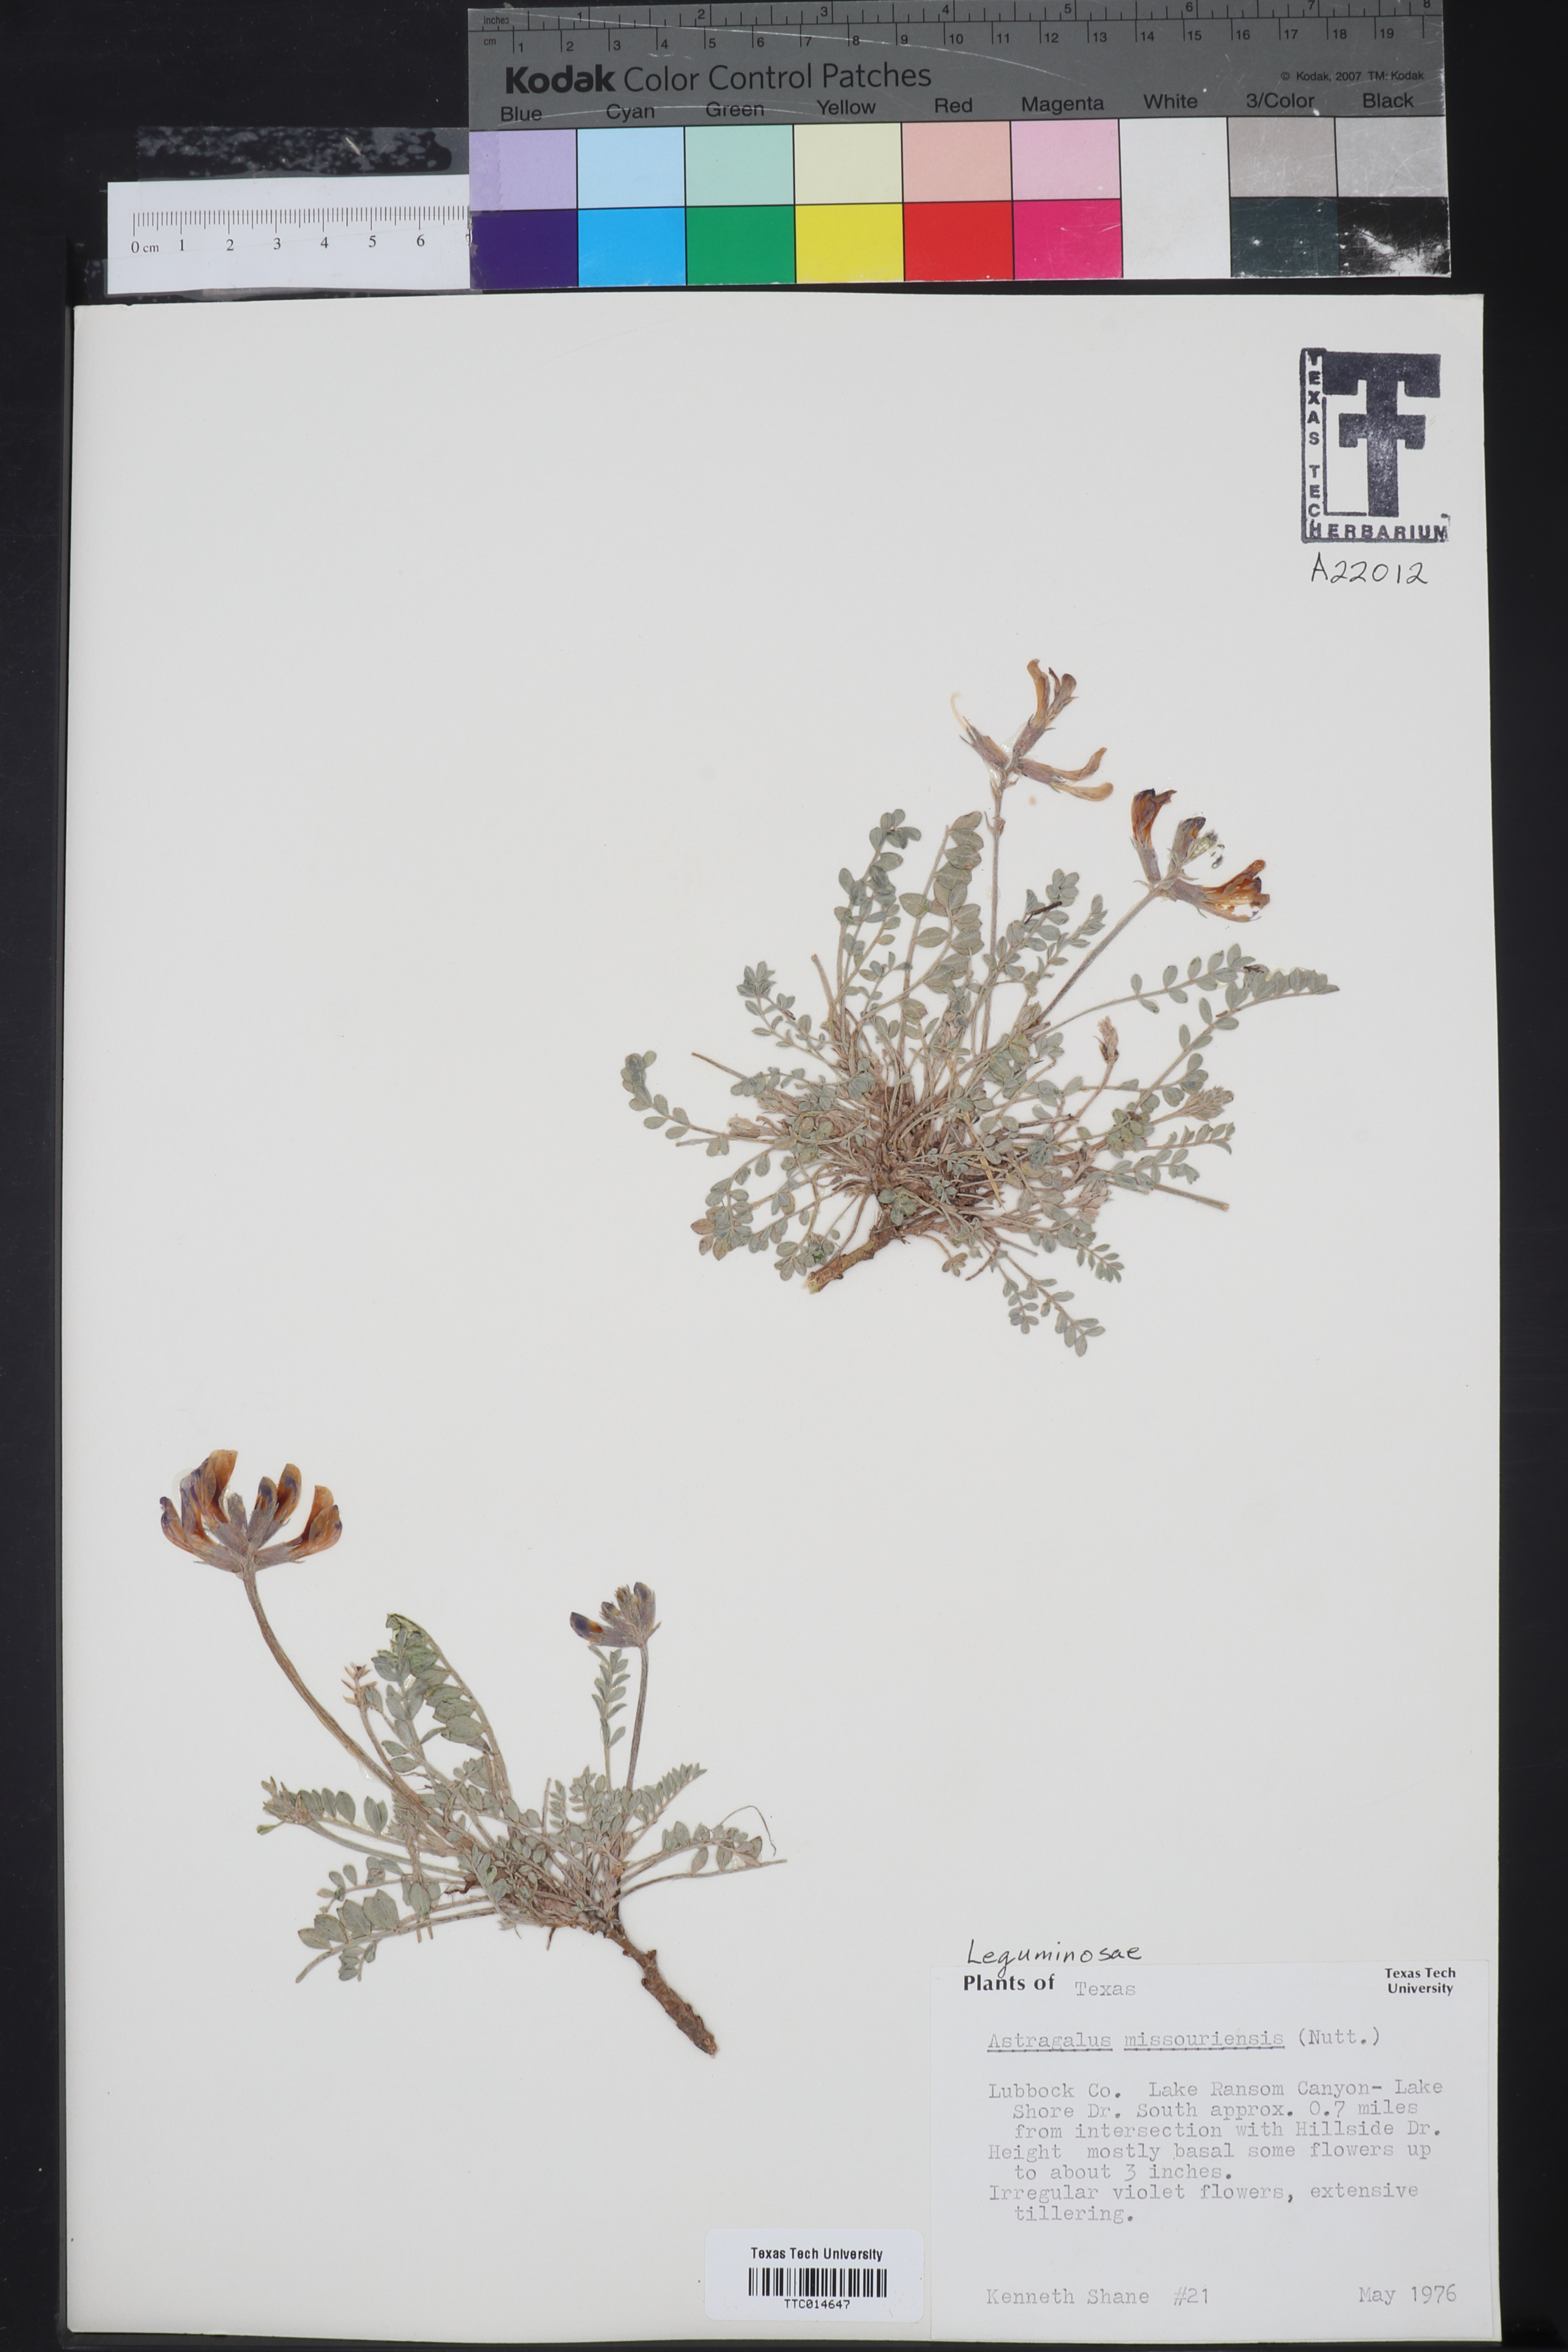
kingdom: Plantae
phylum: Tracheophyta
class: Magnoliopsida
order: Fabales
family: Fabaceae
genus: Astragalus
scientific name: Astragalus missouriensis
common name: Missouri milk-vetch
